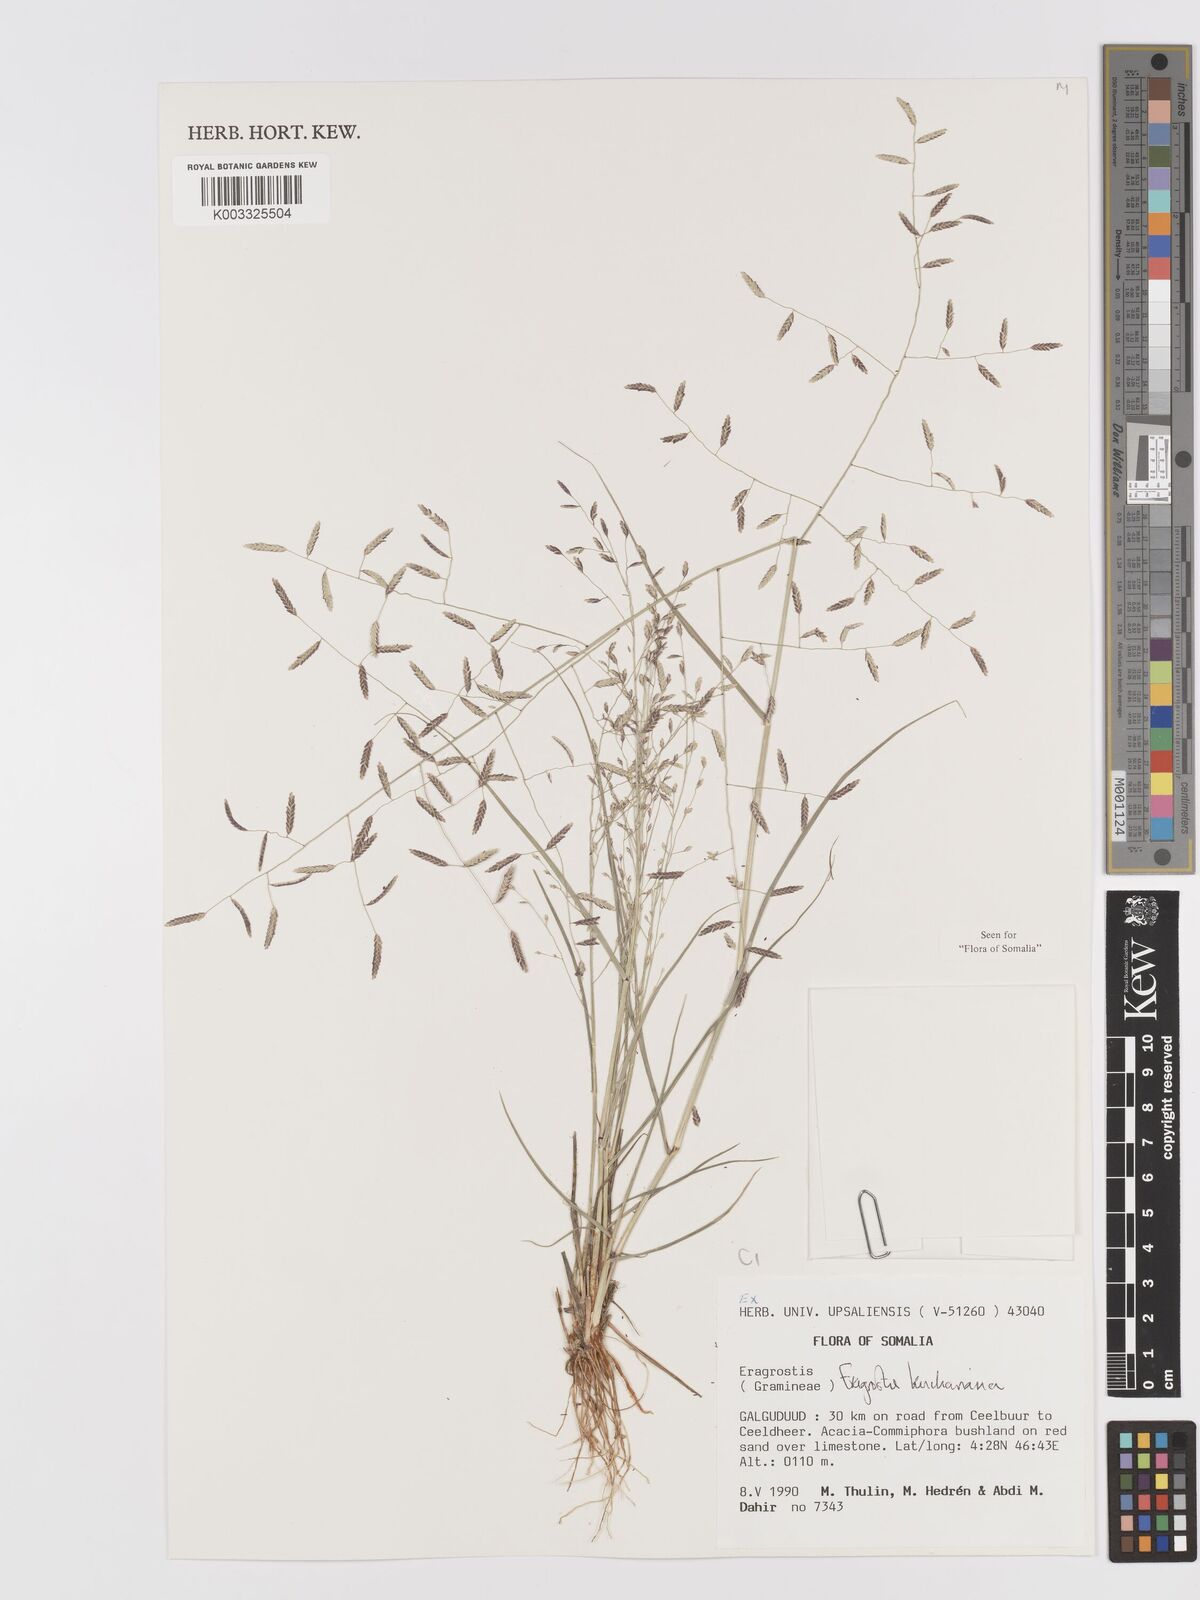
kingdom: Plantae
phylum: Tracheophyta
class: Liliopsida
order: Poales
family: Poaceae
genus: Eragrostis
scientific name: Eragrostis kuchariana
